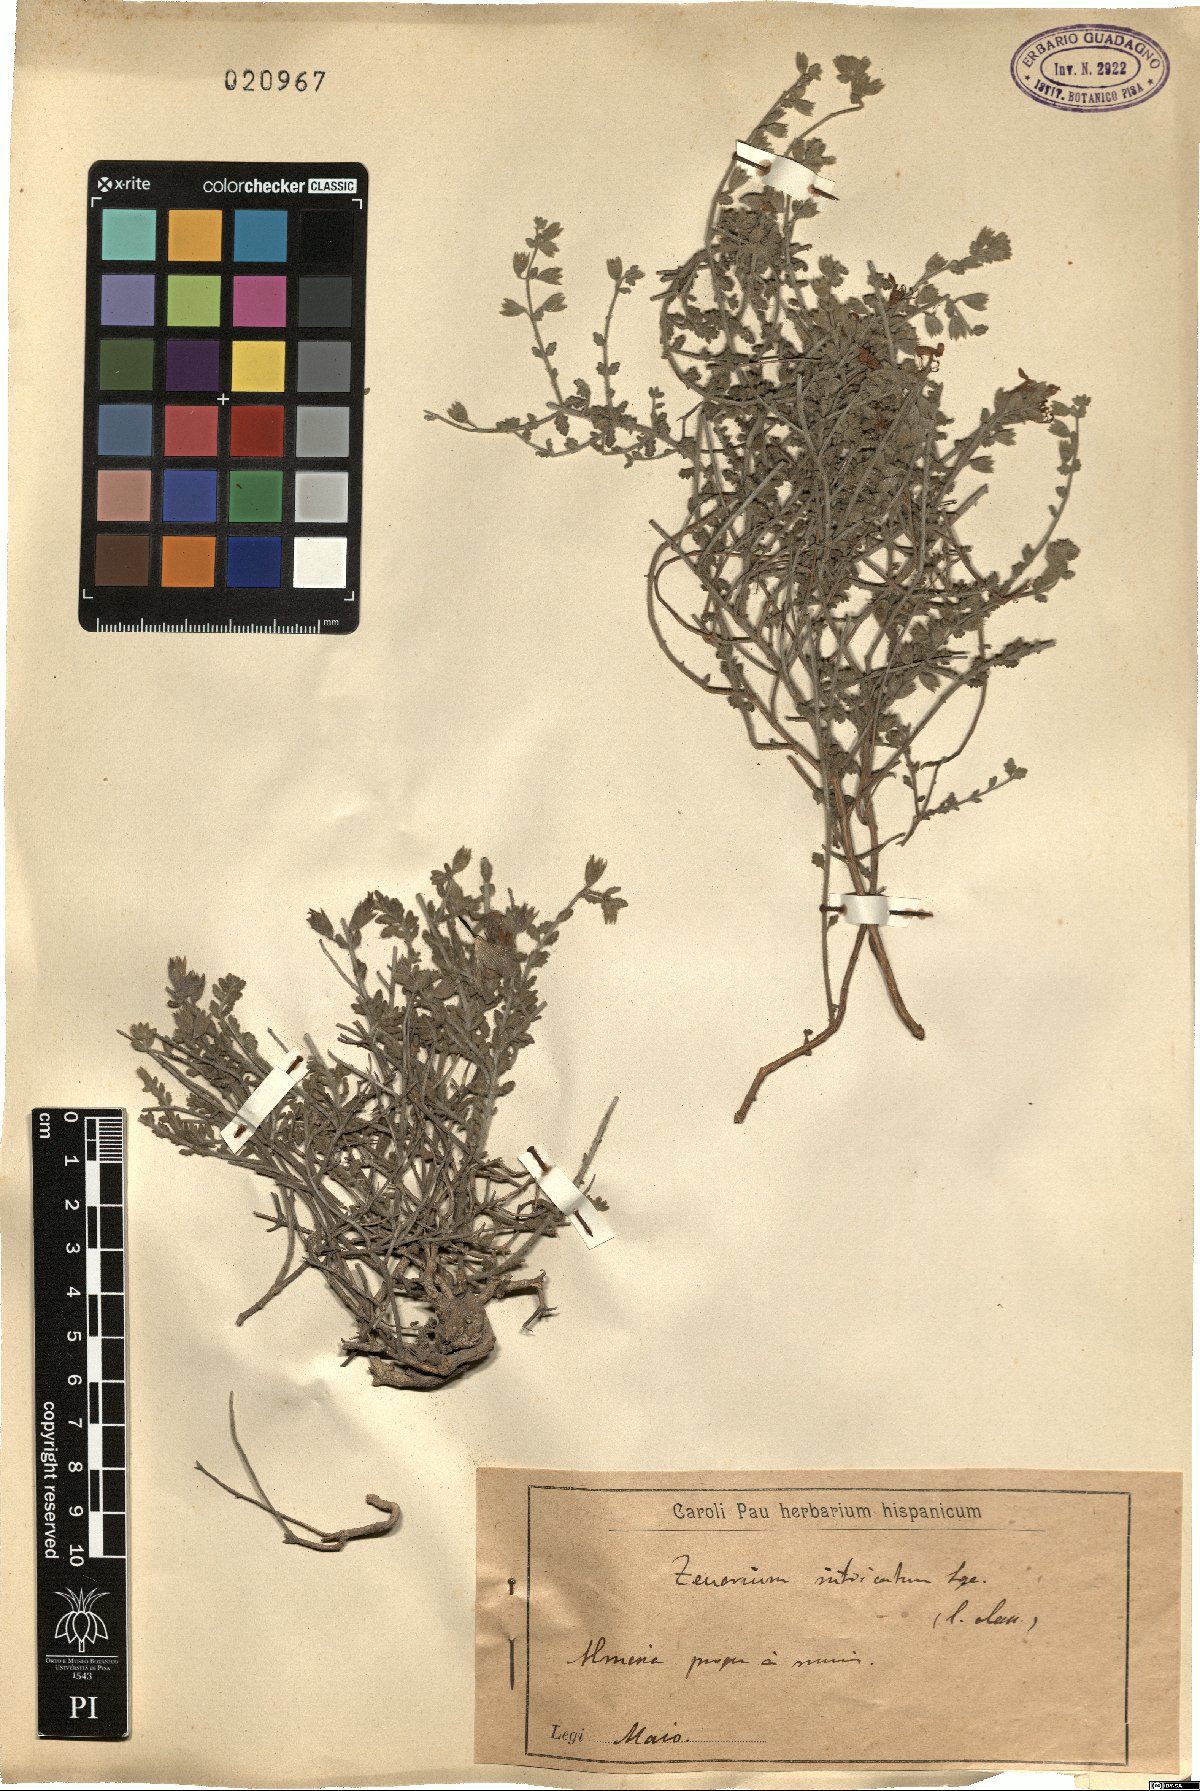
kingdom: Plantae
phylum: Tracheophyta
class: Magnoliopsida
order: Lamiales
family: Lamiaceae
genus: Teucrium
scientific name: Teucrium intricatum
